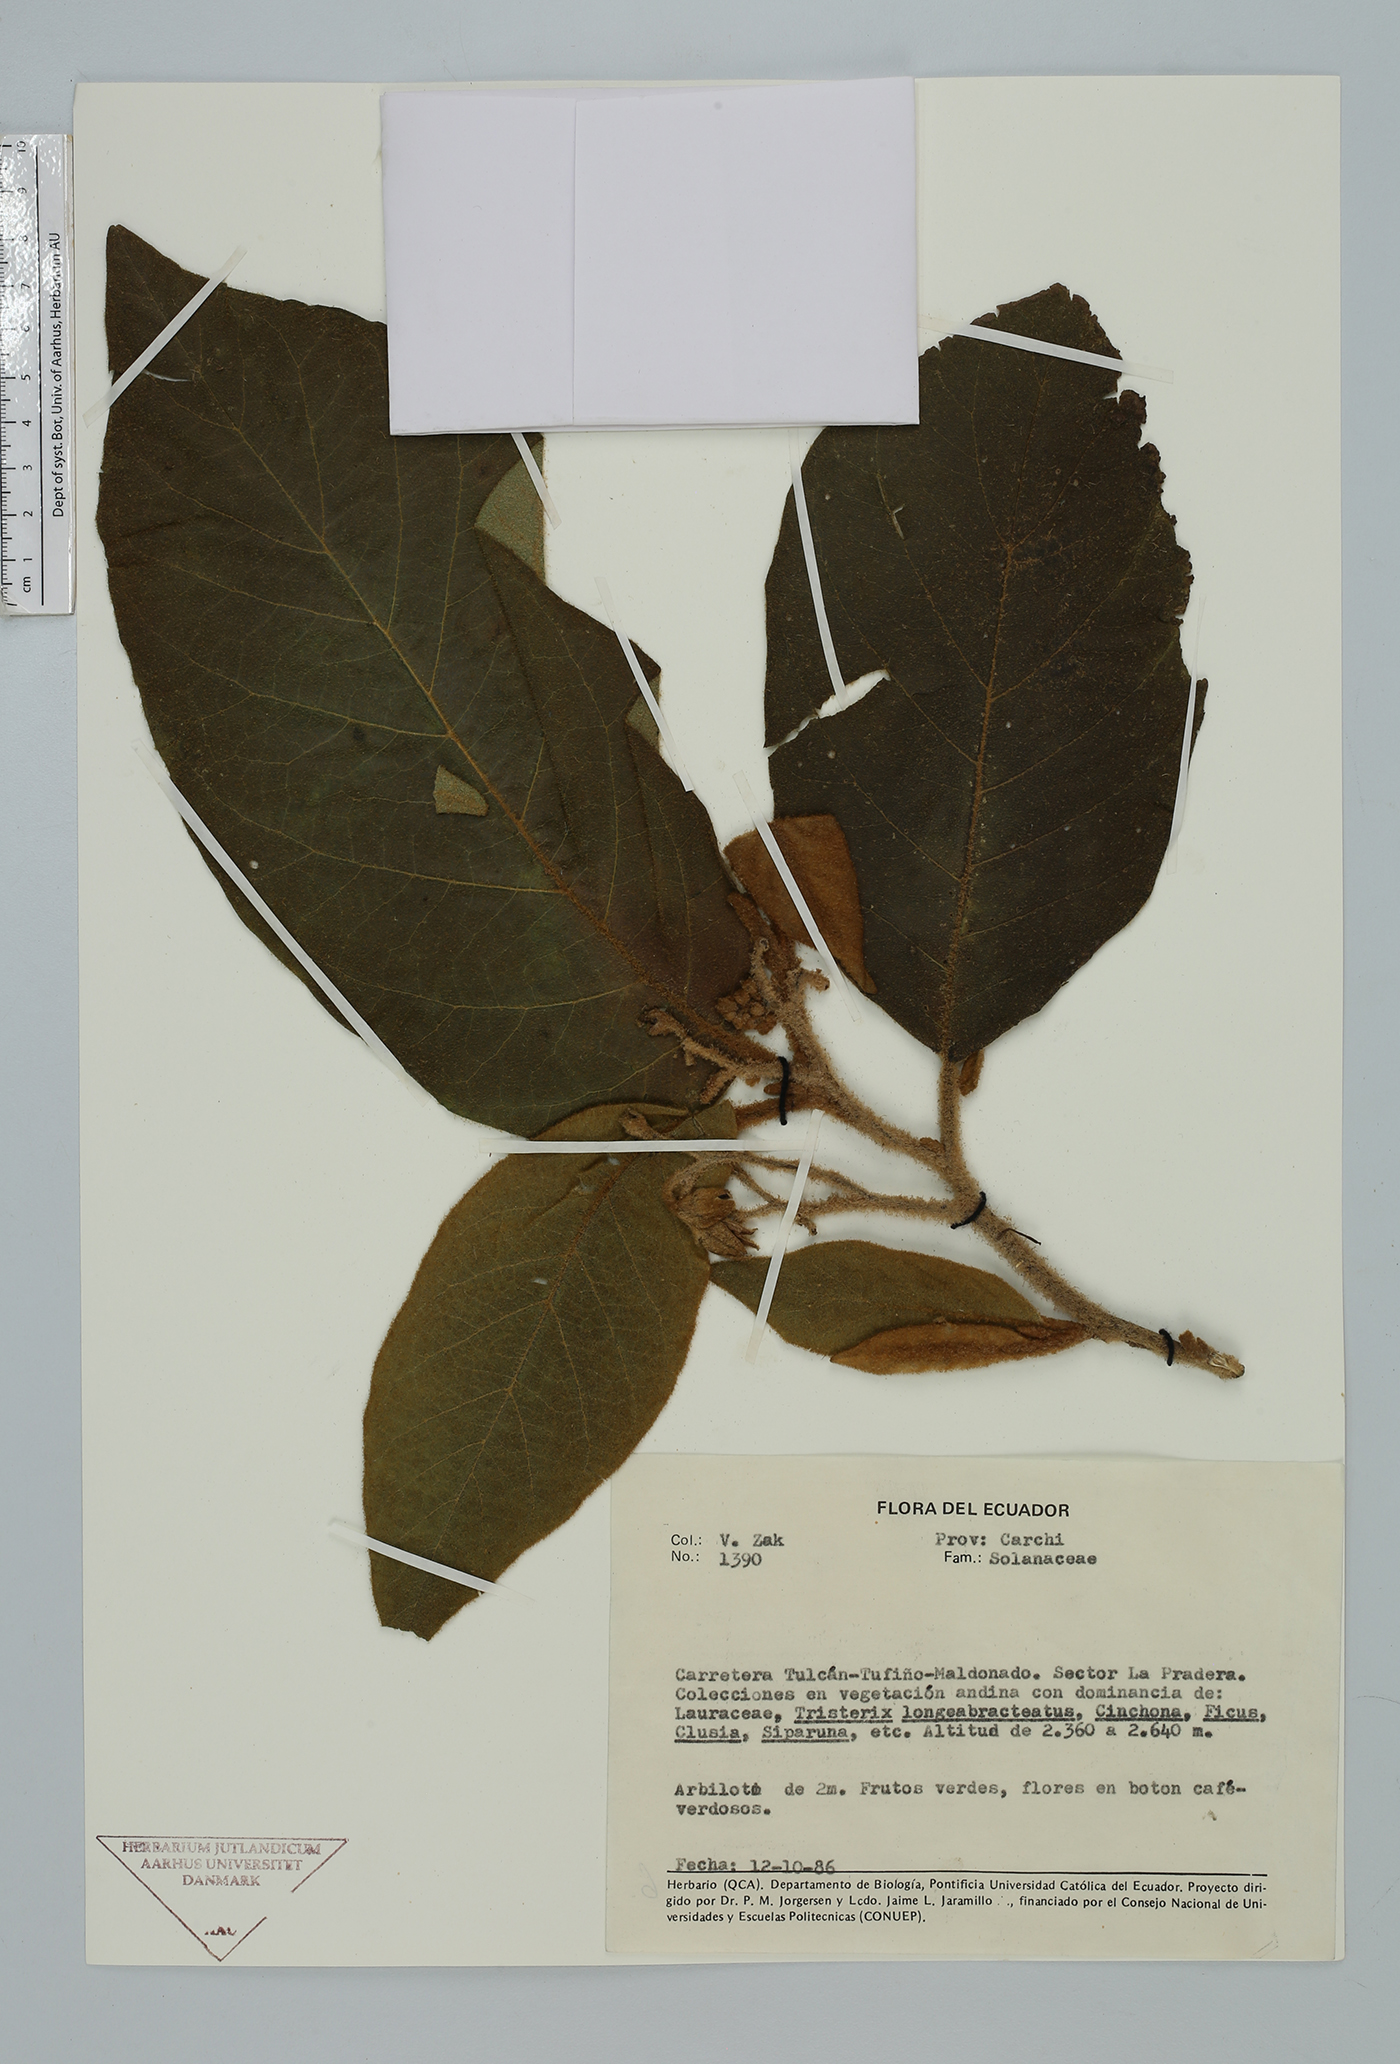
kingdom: Plantae
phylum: Tracheophyta
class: Magnoliopsida
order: Solanales
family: Solanaceae
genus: Solanum
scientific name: Solanum
